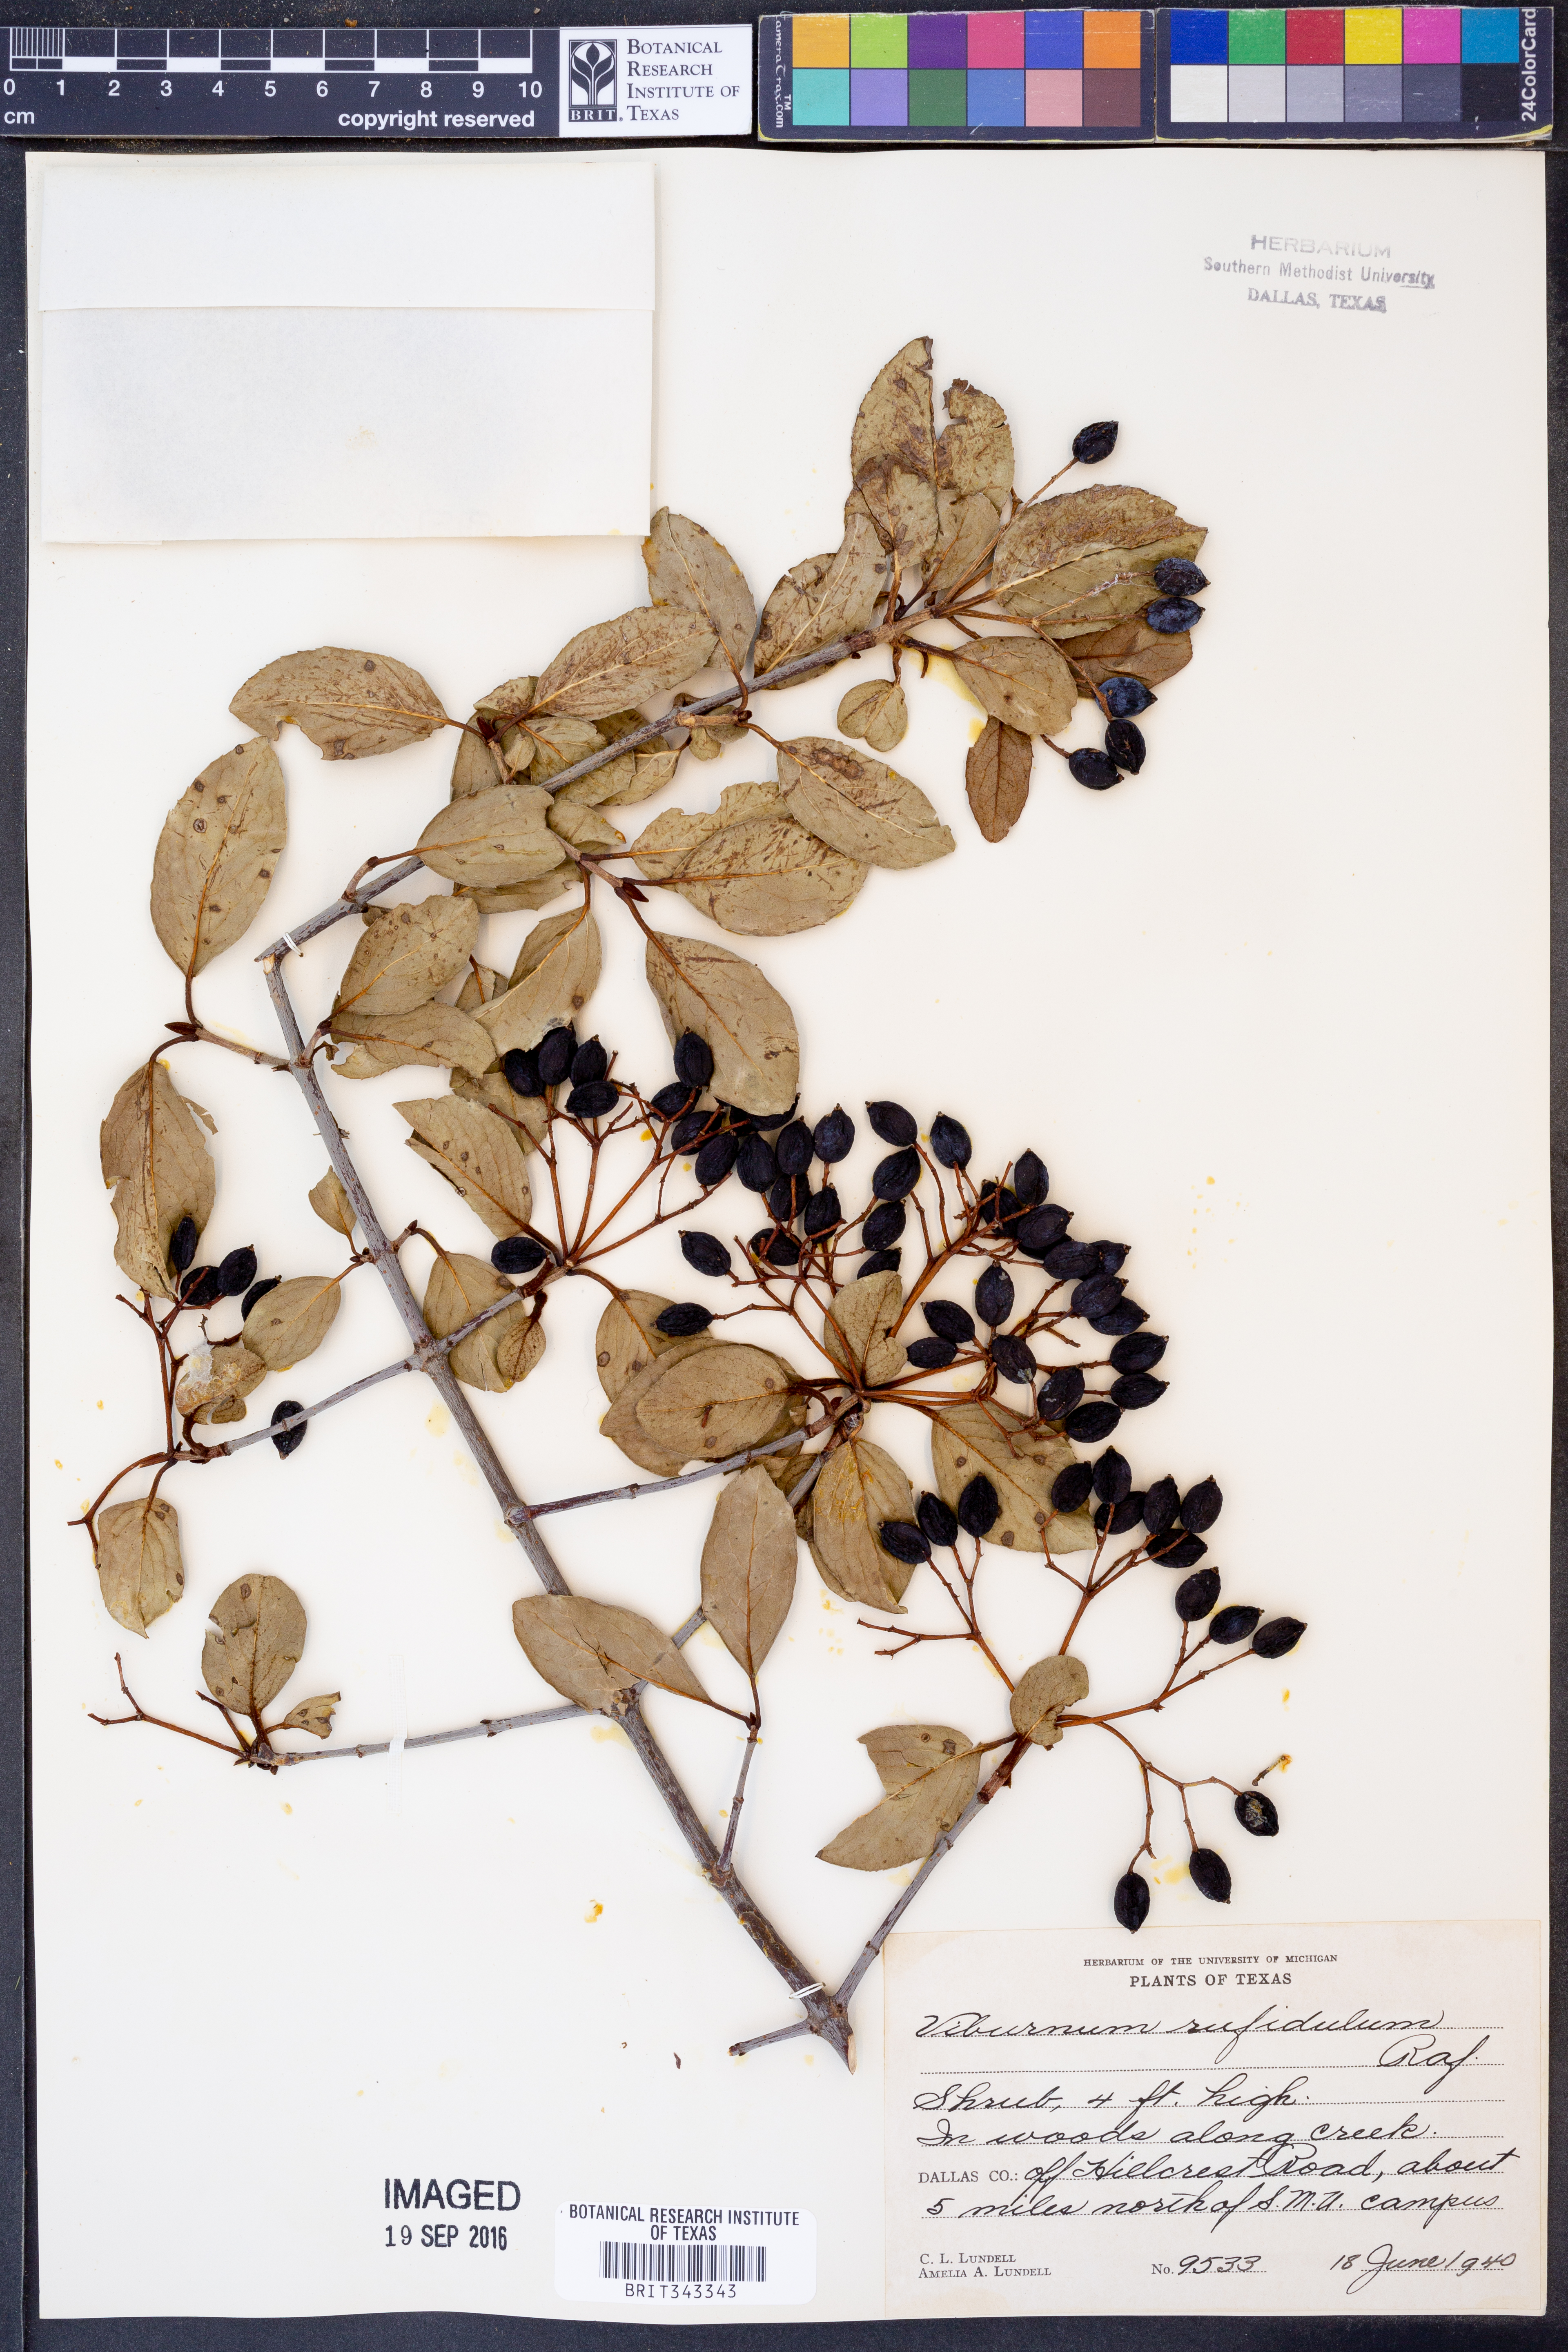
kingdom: Plantae
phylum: Tracheophyta
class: Magnoliopsida
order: Dipsacales
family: Viburnaceae
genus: Viburnum
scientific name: Viburnum rufidulum
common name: Blue haw
